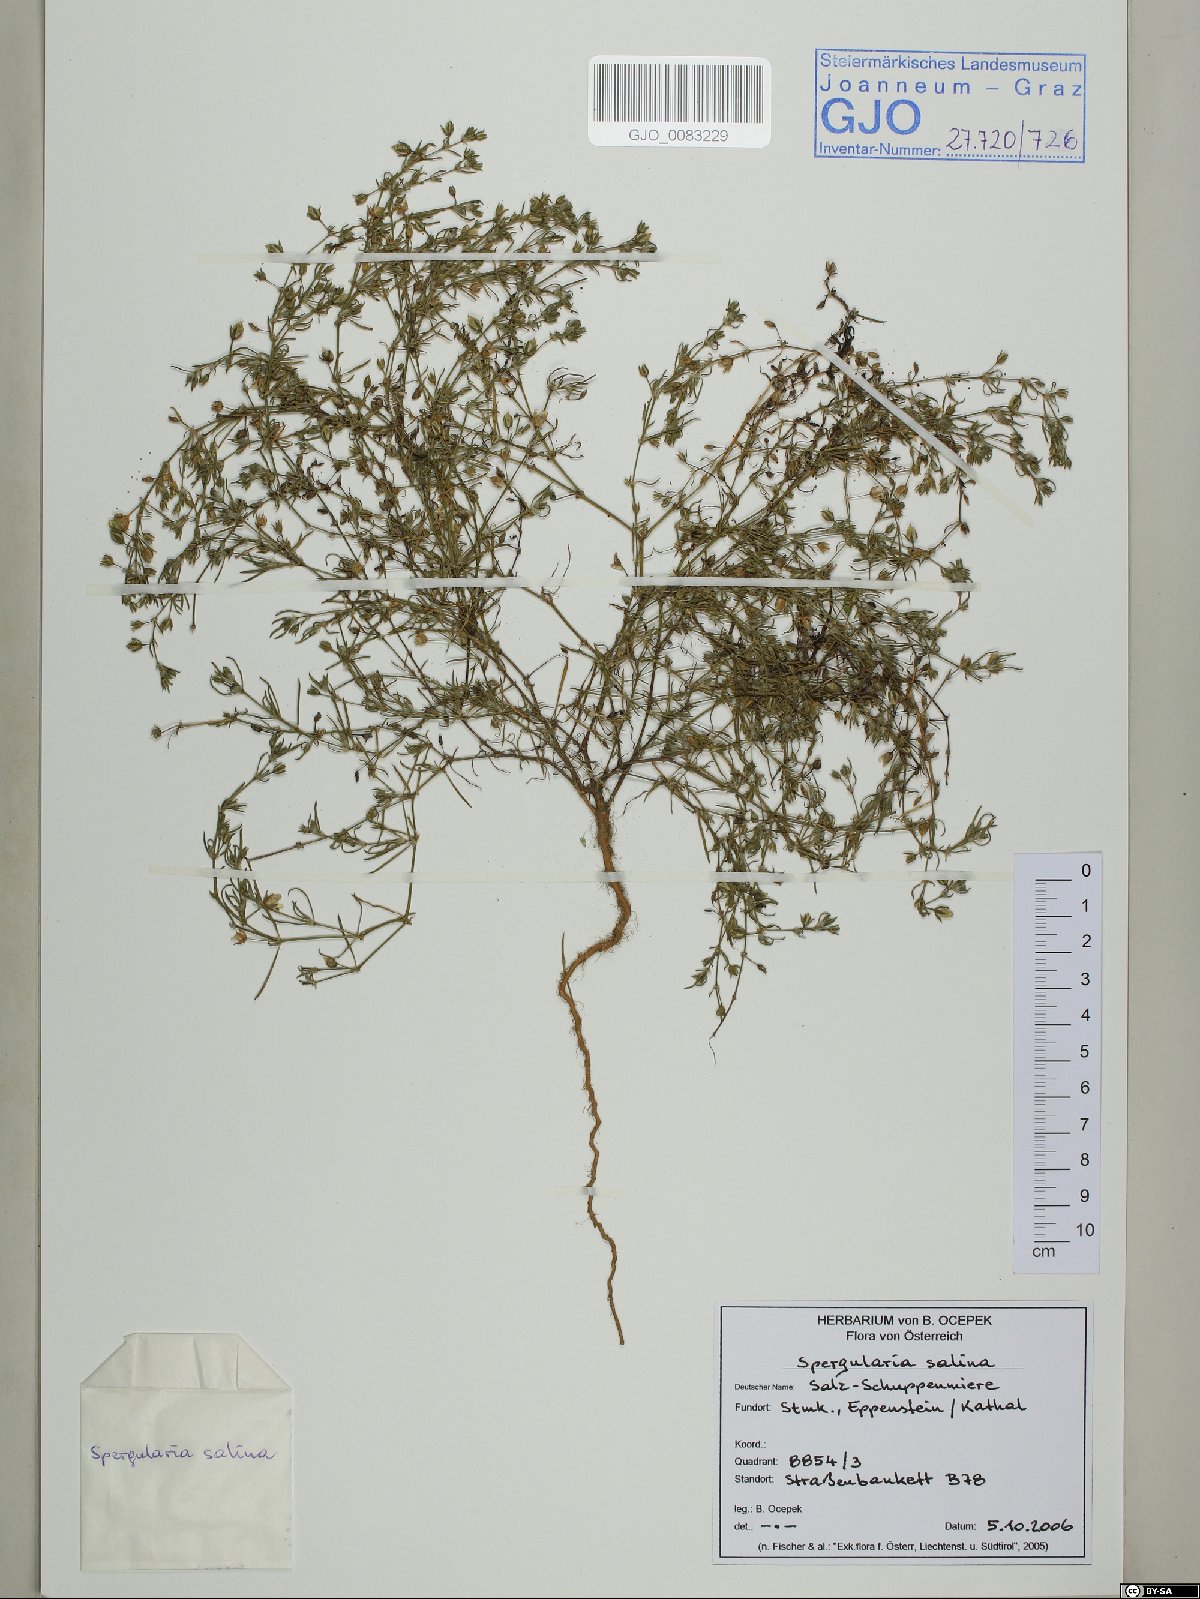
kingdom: Plantae
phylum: Tracheophyta
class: Magnoliopsida
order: Caryophyllales
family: Caryophyllaceae
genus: Spergularia
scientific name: Spergularia marina
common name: Lesser sea-spurrey
